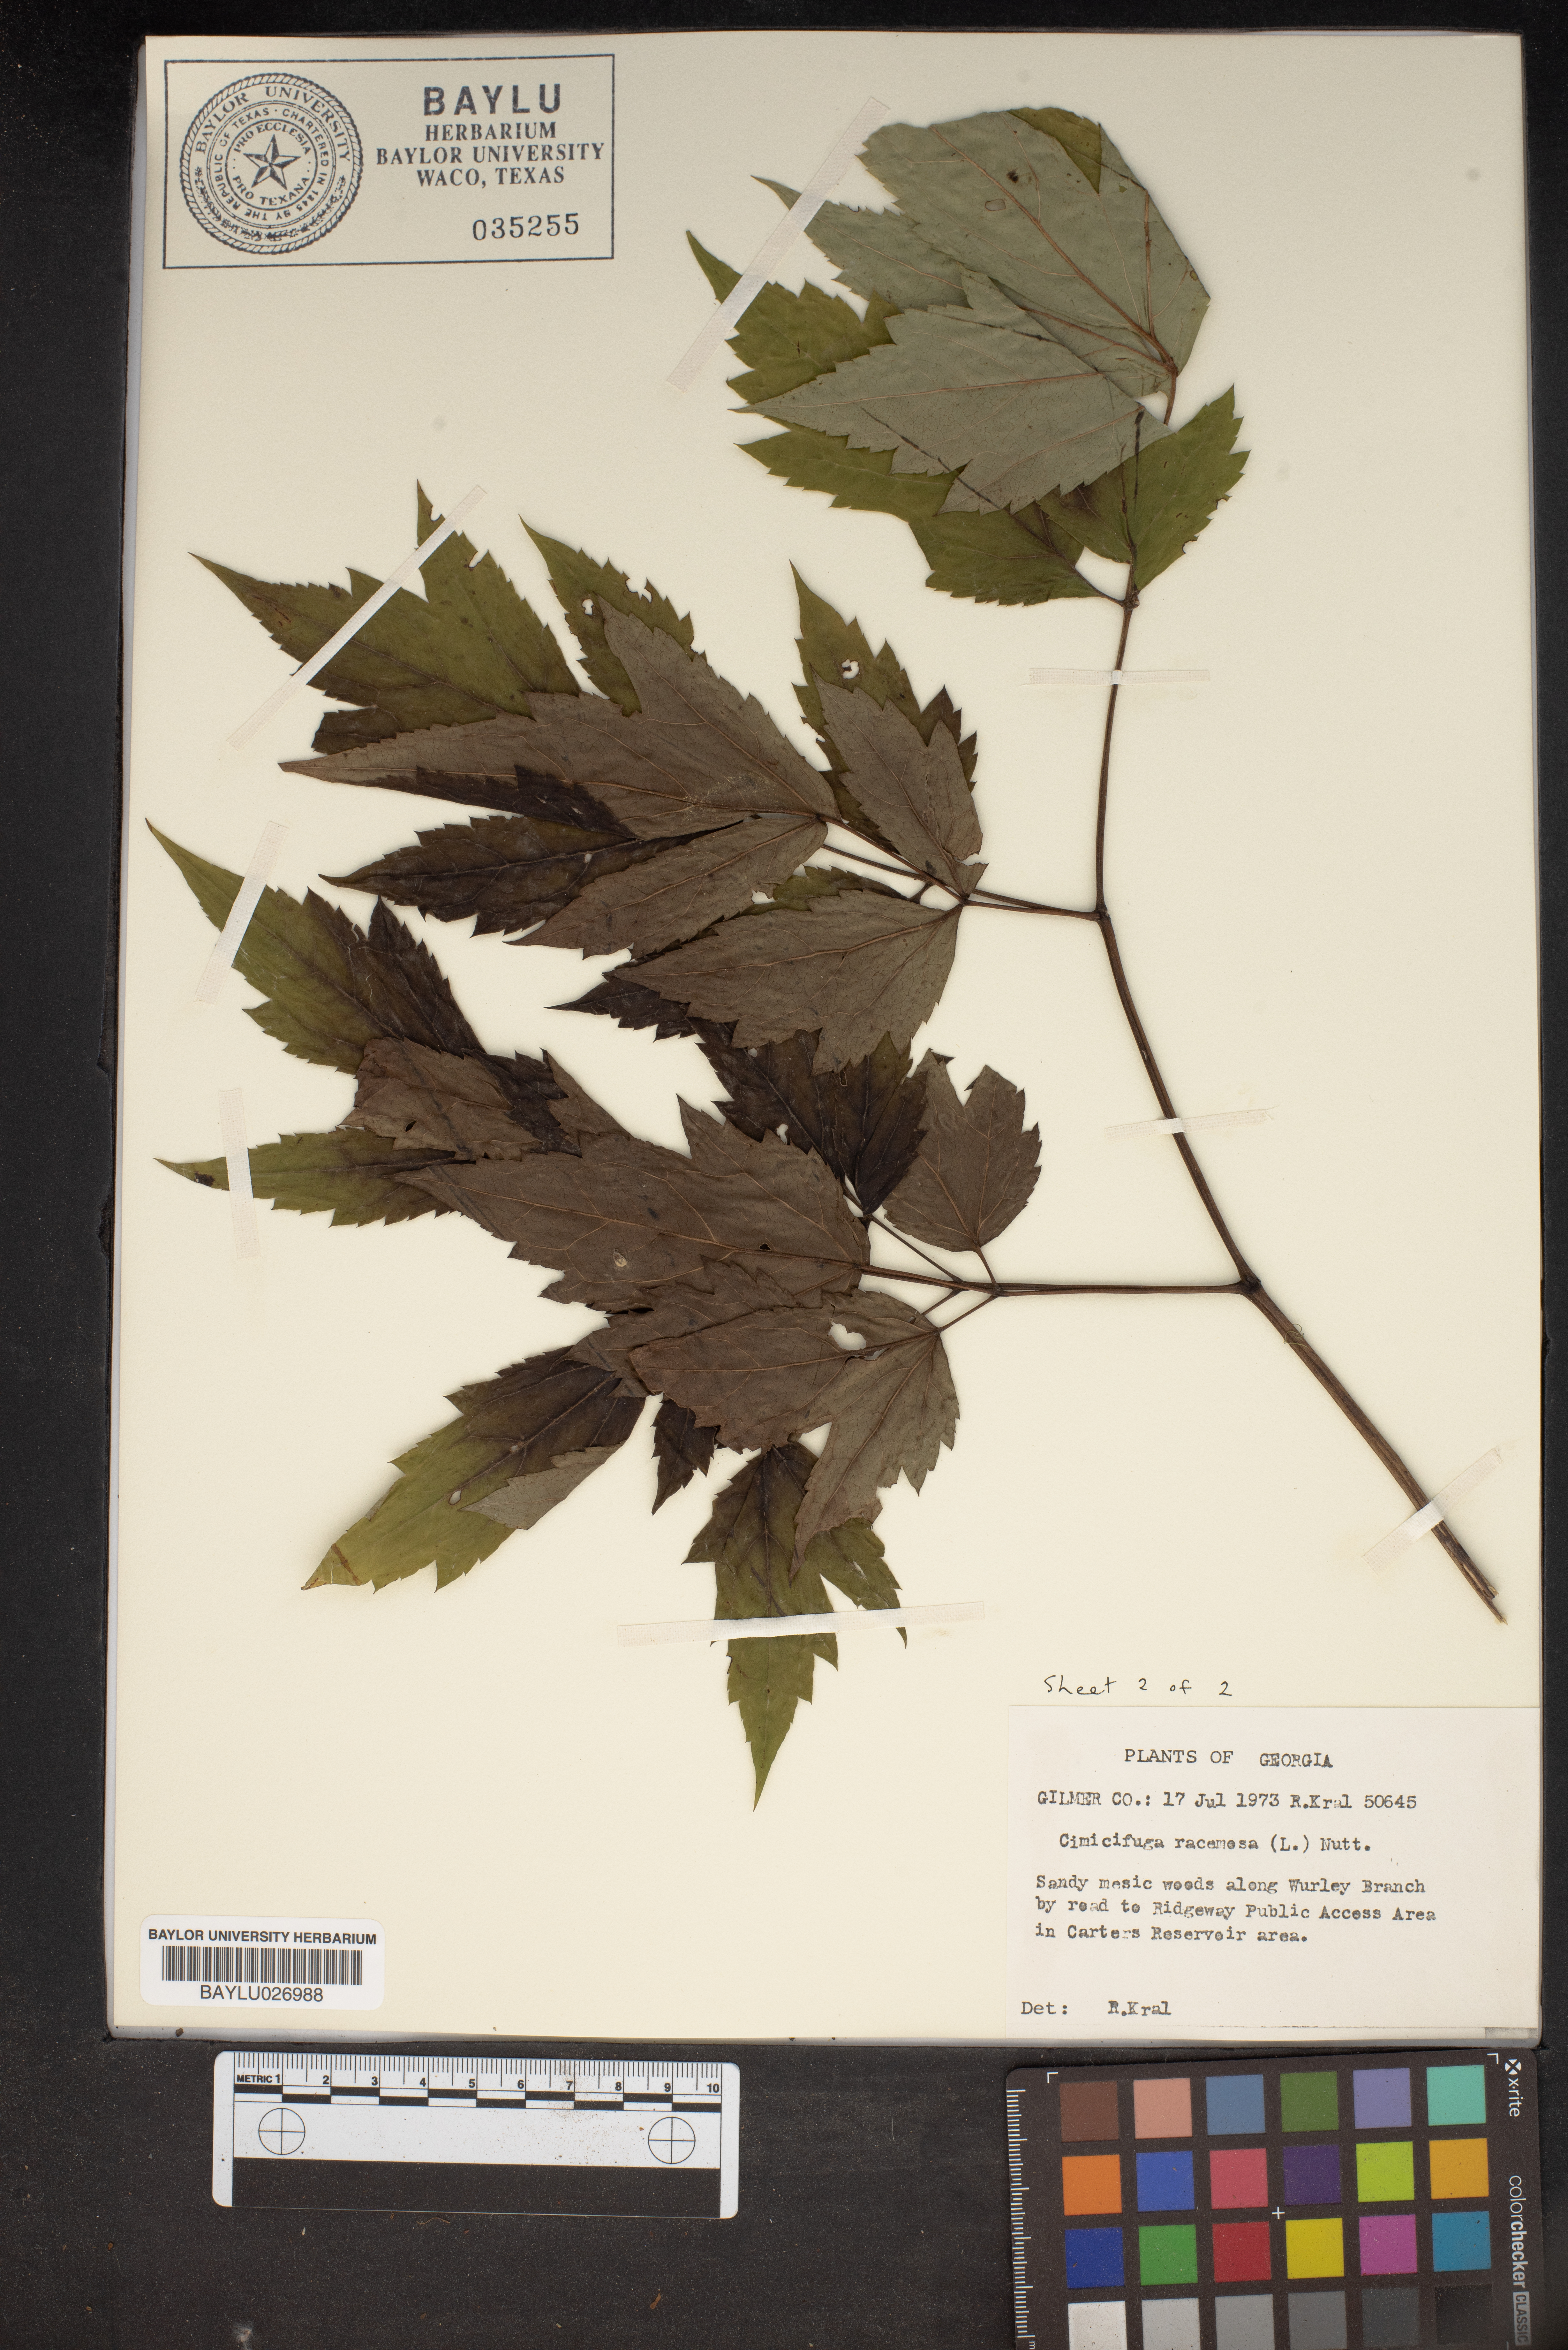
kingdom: Plantae
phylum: Tracheophyta
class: Magnoliopsida
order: Ranunculales
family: Ranunculaceae
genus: Actaea
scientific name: Actaea racemosa
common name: Black cohosh
